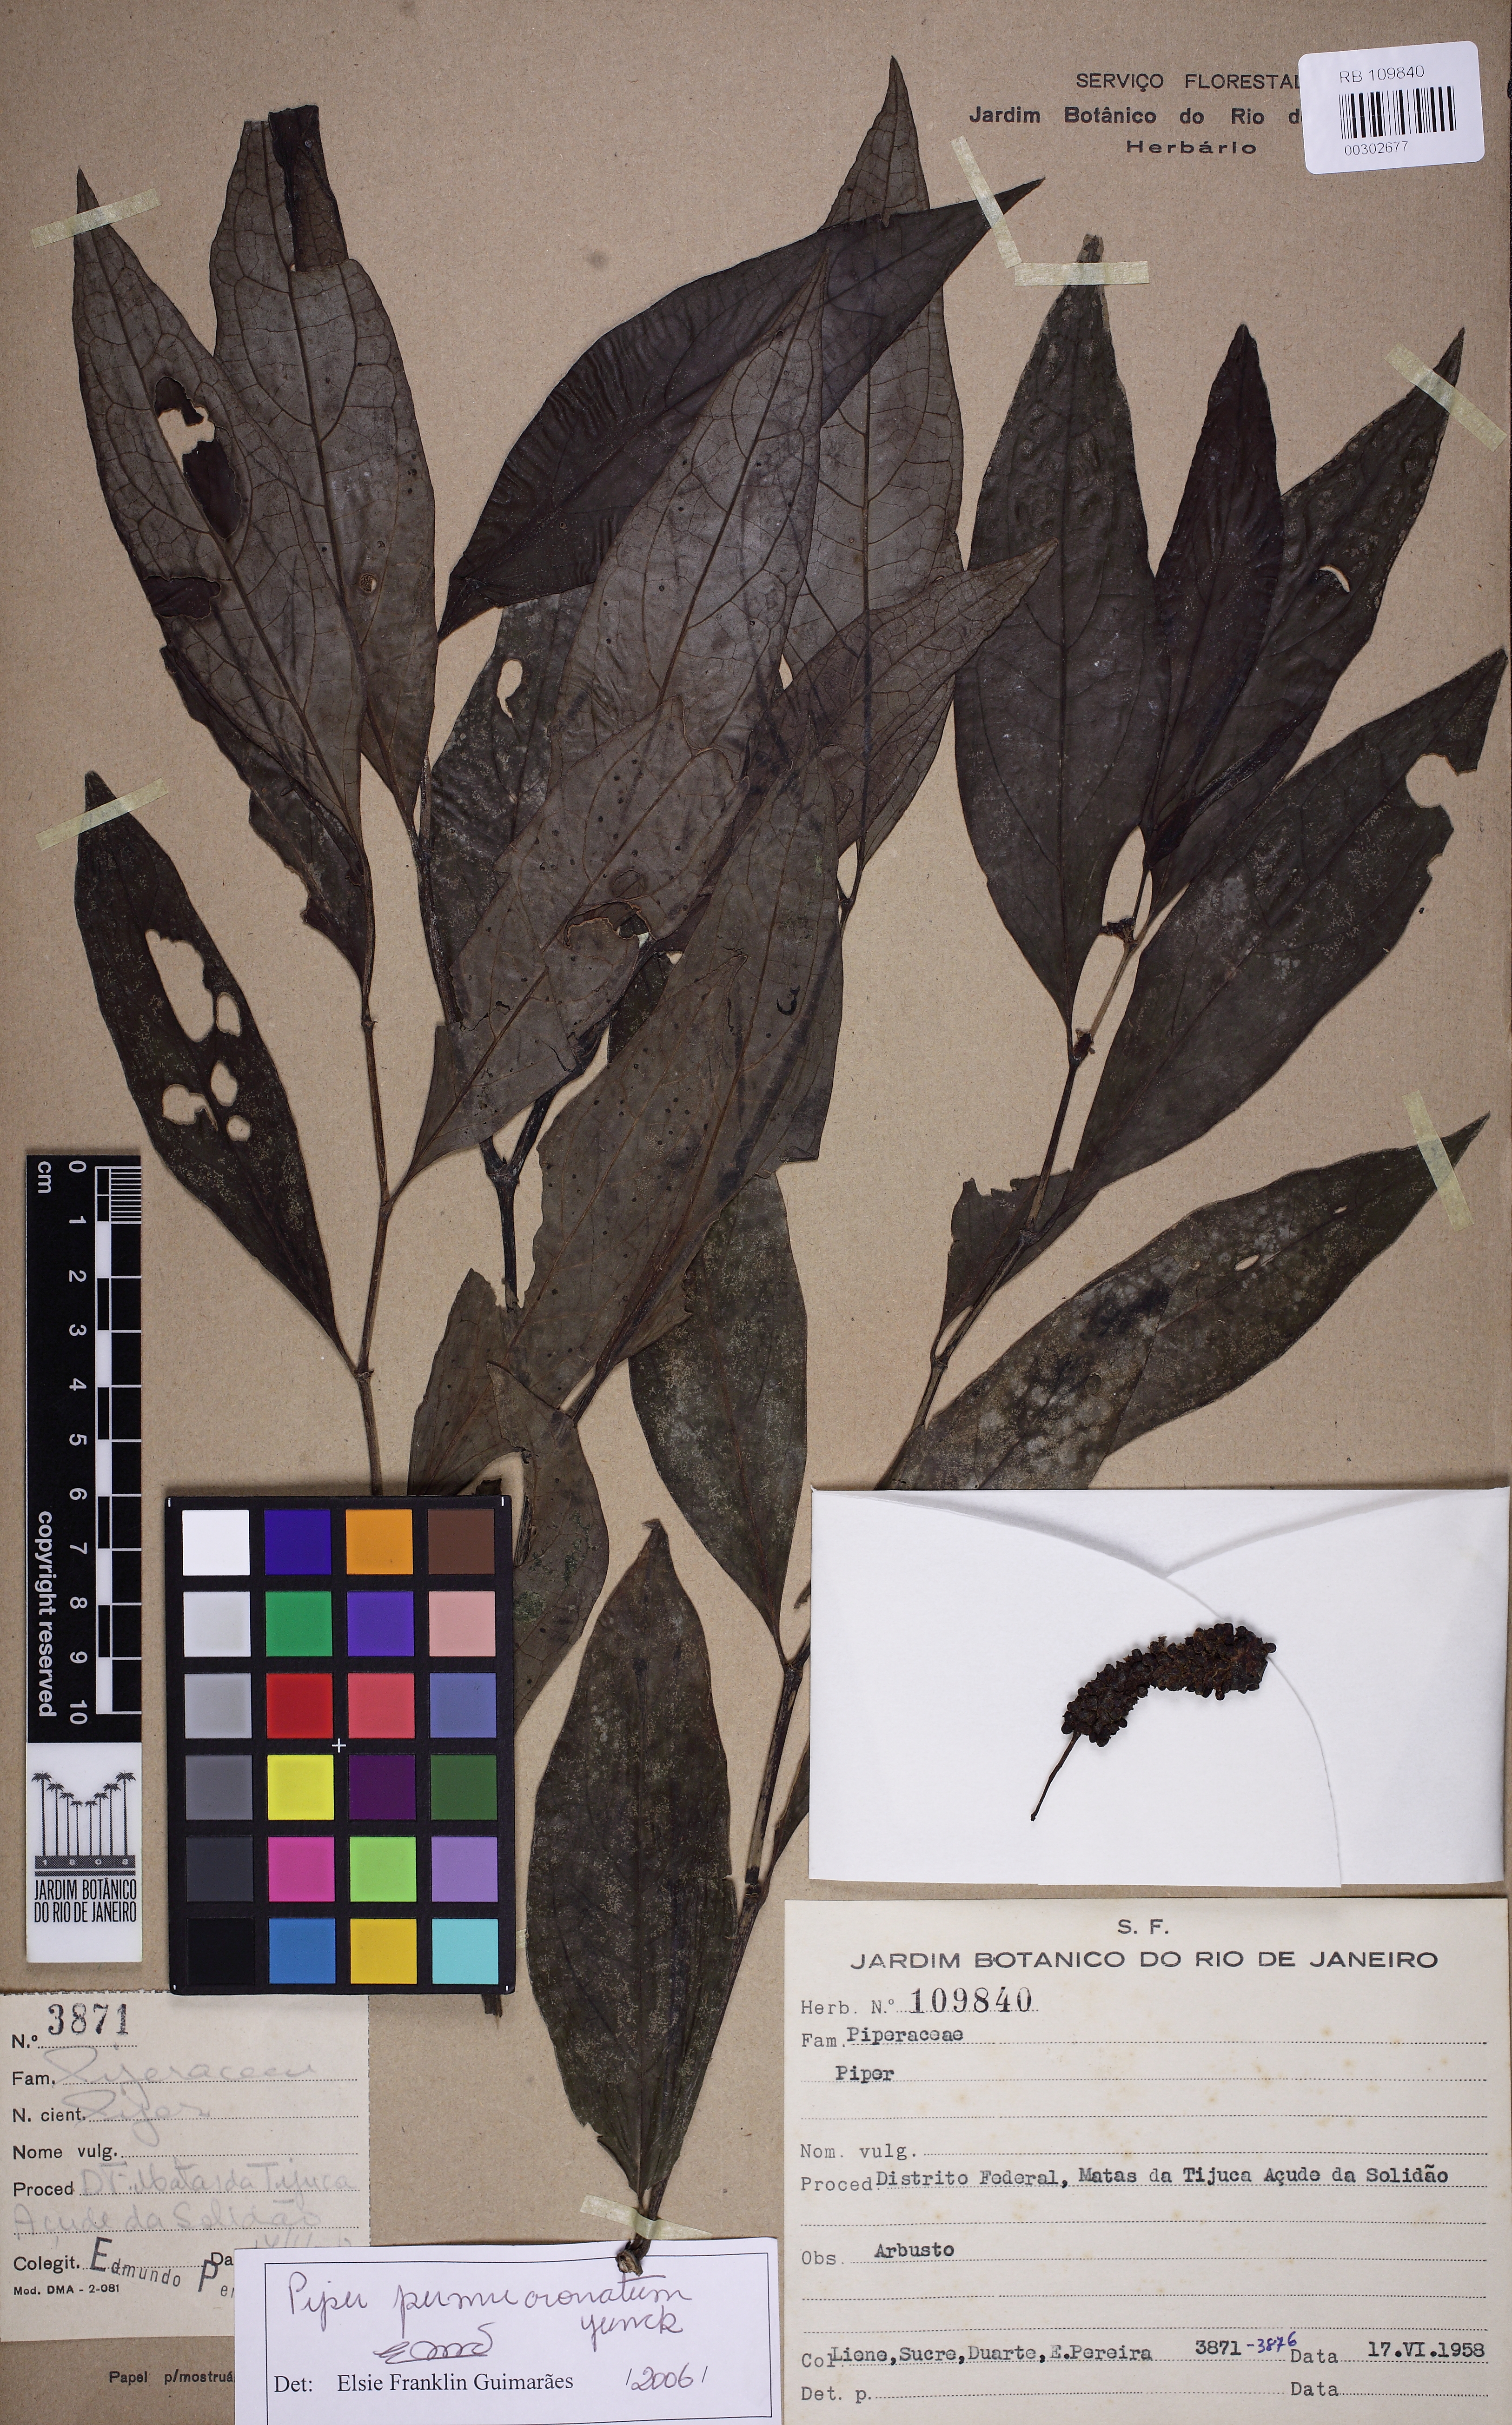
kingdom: Plantae
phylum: Tracheophyta
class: Magnoliopsida
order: Piperales
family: Piperaceae
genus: Piper
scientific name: Piper permucronatum
